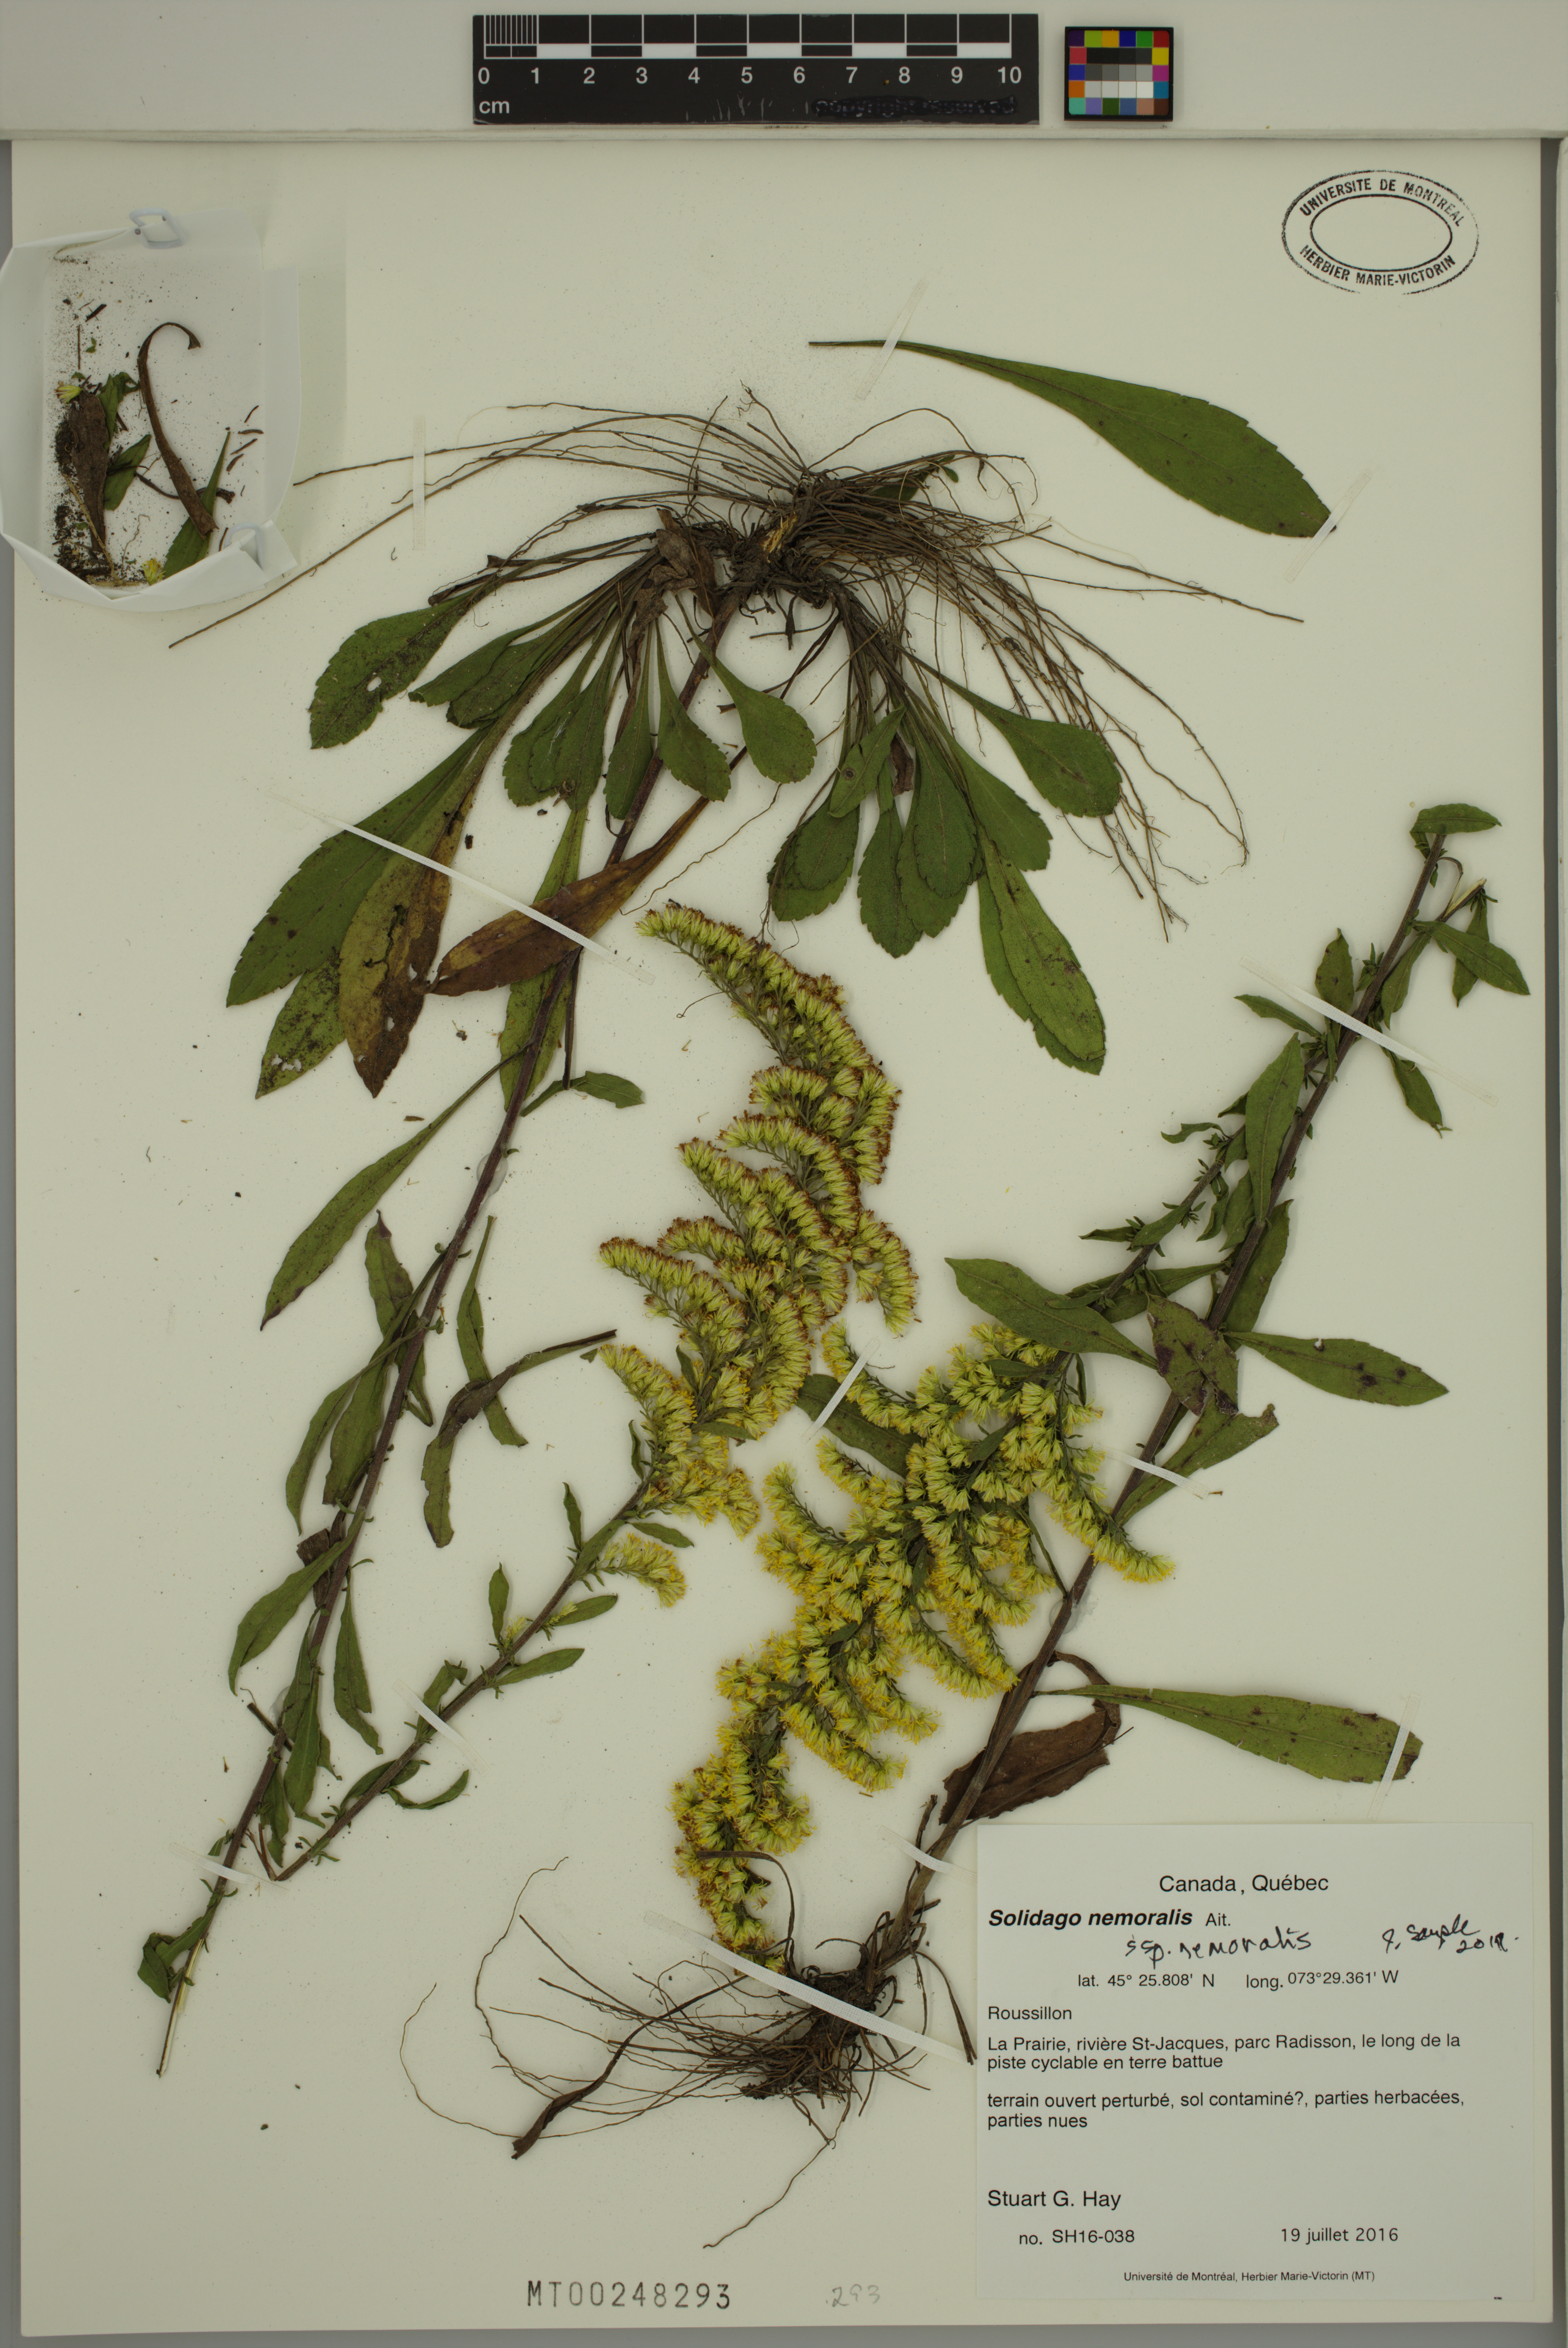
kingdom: Plantae
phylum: Tracheophyta
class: Magnoliopsida
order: Asterales
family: Asteraceae
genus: Solidago
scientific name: Solidago nemoralis
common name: Grey goldenrod
